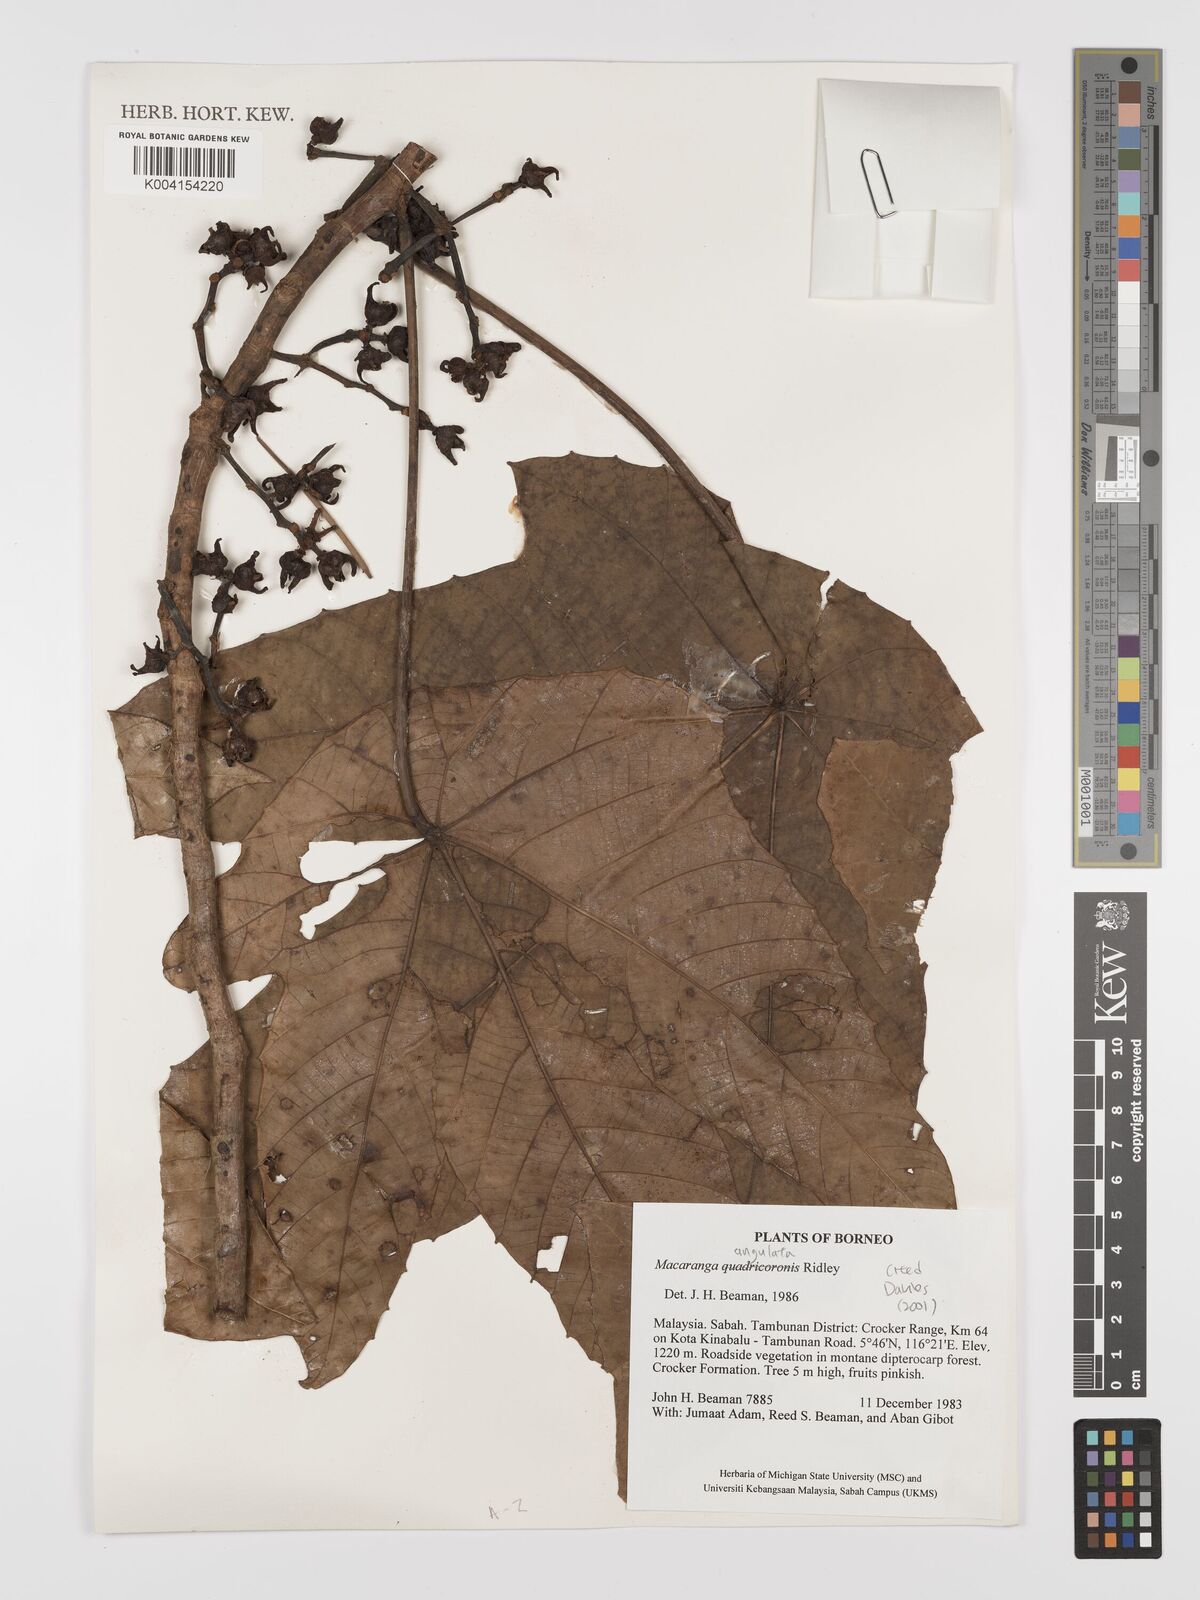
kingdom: Plantae
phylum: Tracheophyta
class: Magnoliopsida
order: Malpighiales
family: Euphorbiaceae
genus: Macaranga
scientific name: Macaranga triloba
